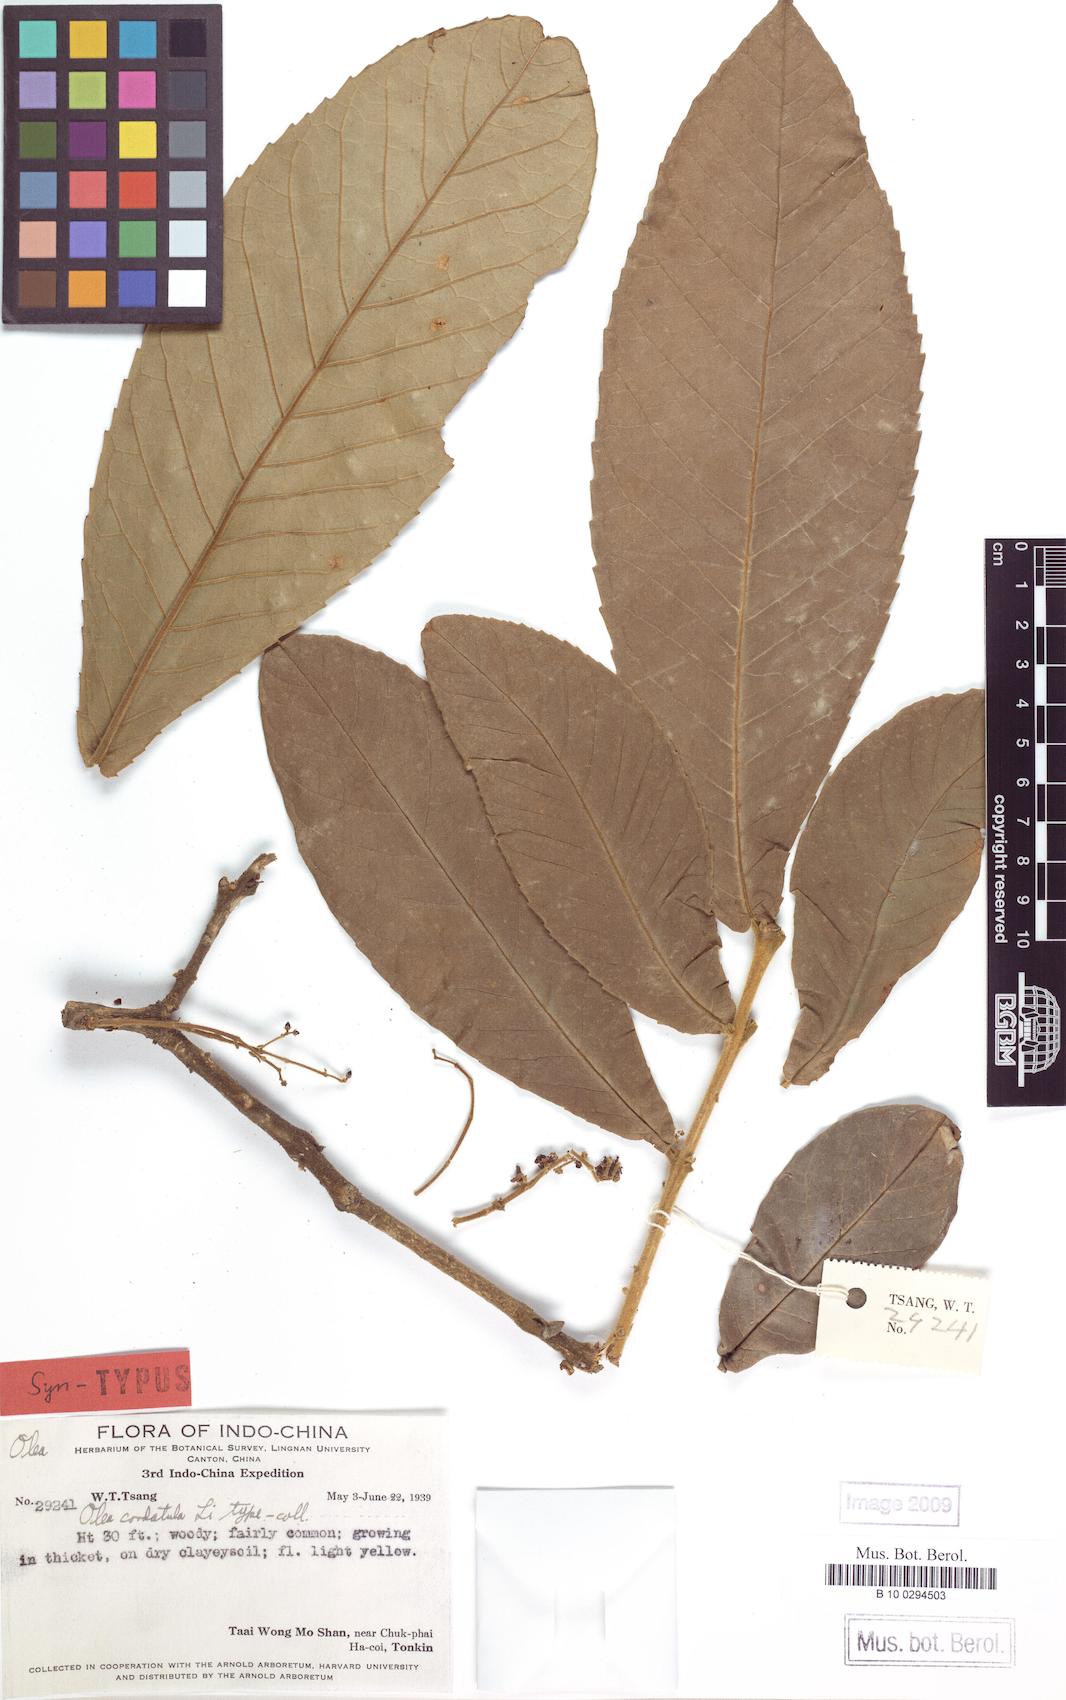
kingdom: Plantae
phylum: Tracheophyta
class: Magnoliopsida
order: Lamiales
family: Oleaceae
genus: Tetrapilus
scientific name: Tetrapilus cordatulus
